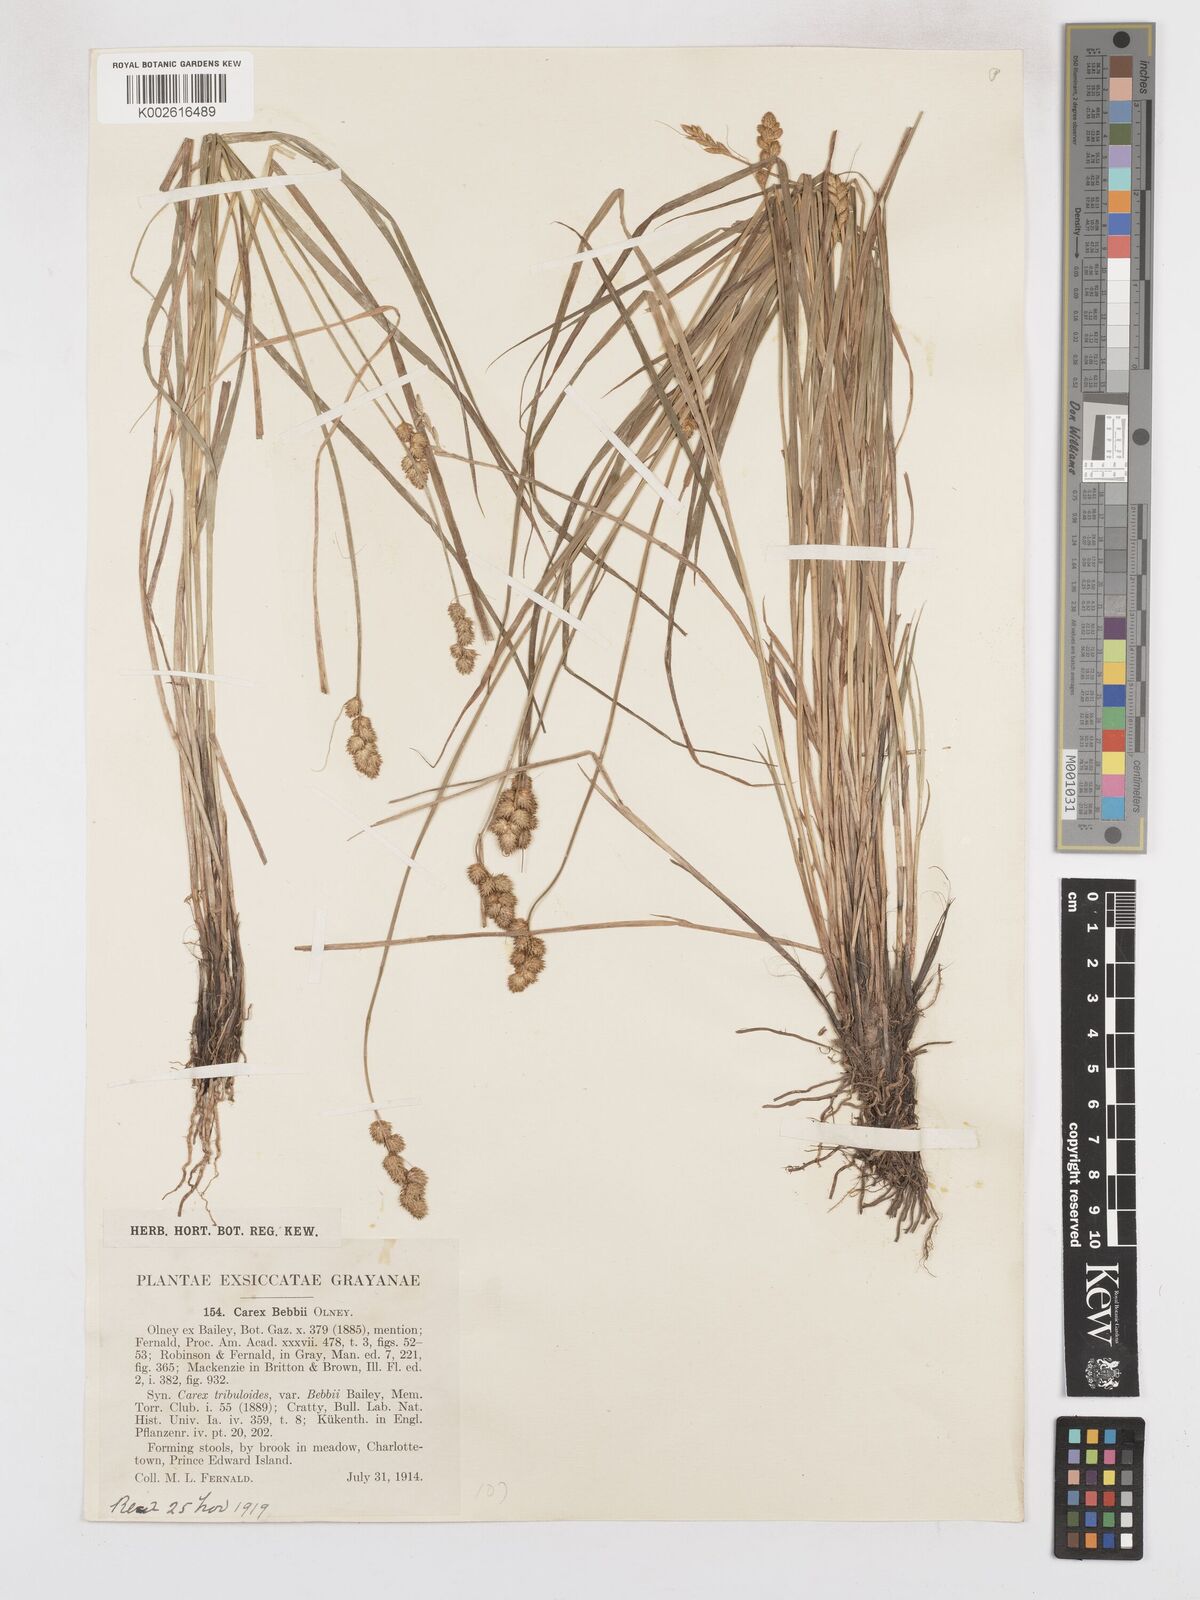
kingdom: Plantae
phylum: Tracheophyta
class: Liliopsida
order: Poales
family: Cyperaceae
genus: Carex
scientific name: Carex cristatella
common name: Crested oval sedge
